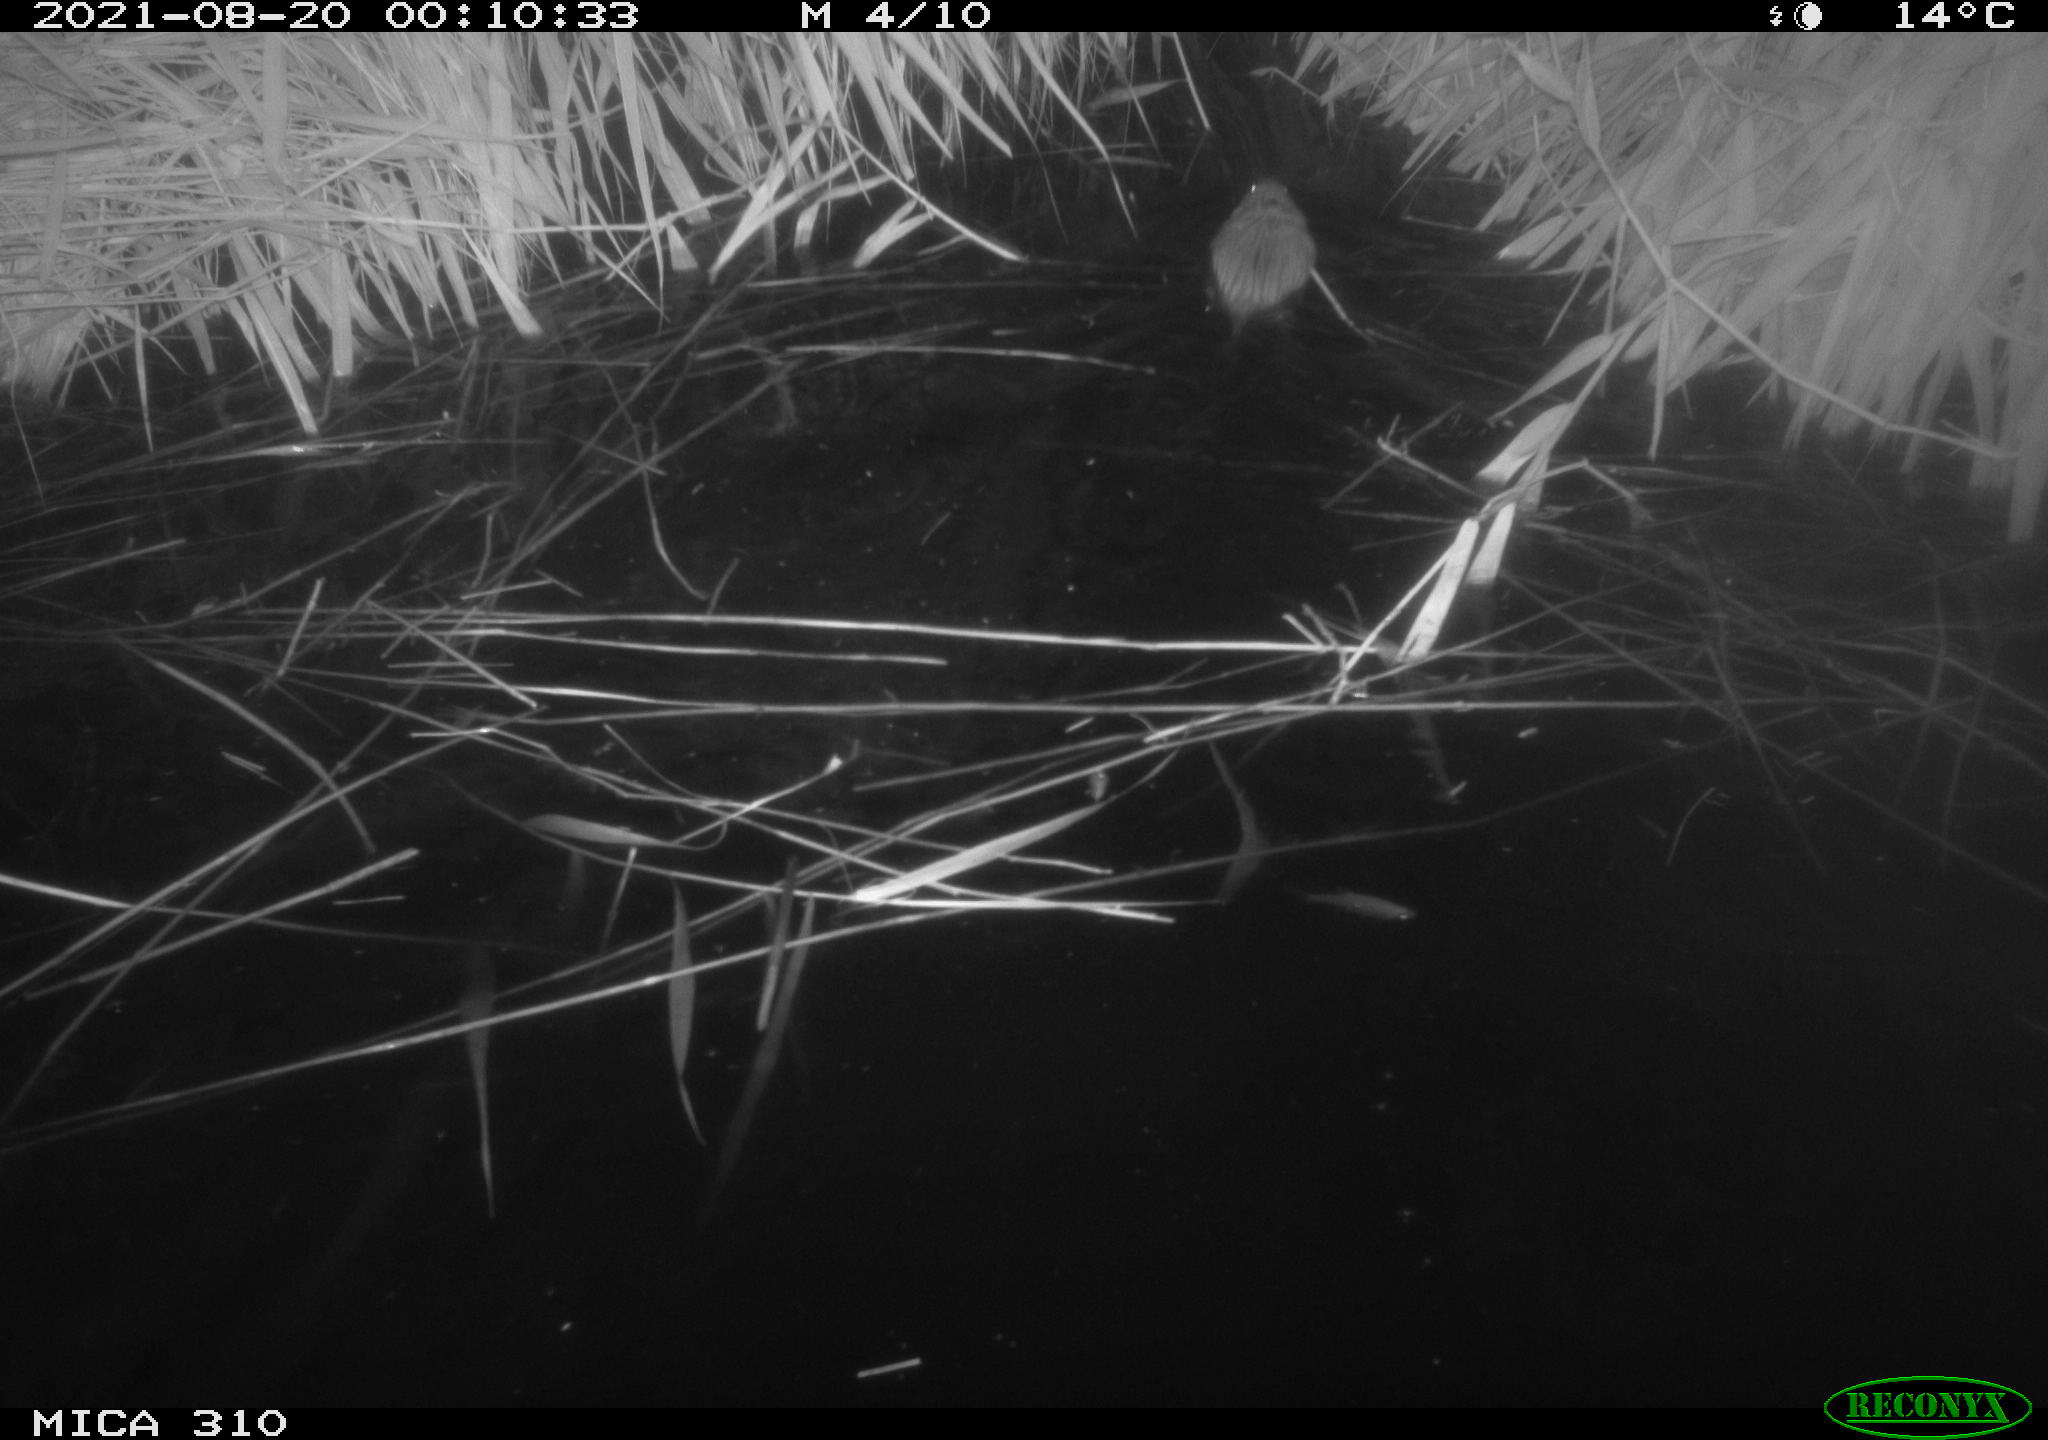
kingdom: Animalia
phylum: Chordata
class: Mammalia
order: Rodentia
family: Cricetidae
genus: Ondatra
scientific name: Ondatra zibethicus
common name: Muskrat
